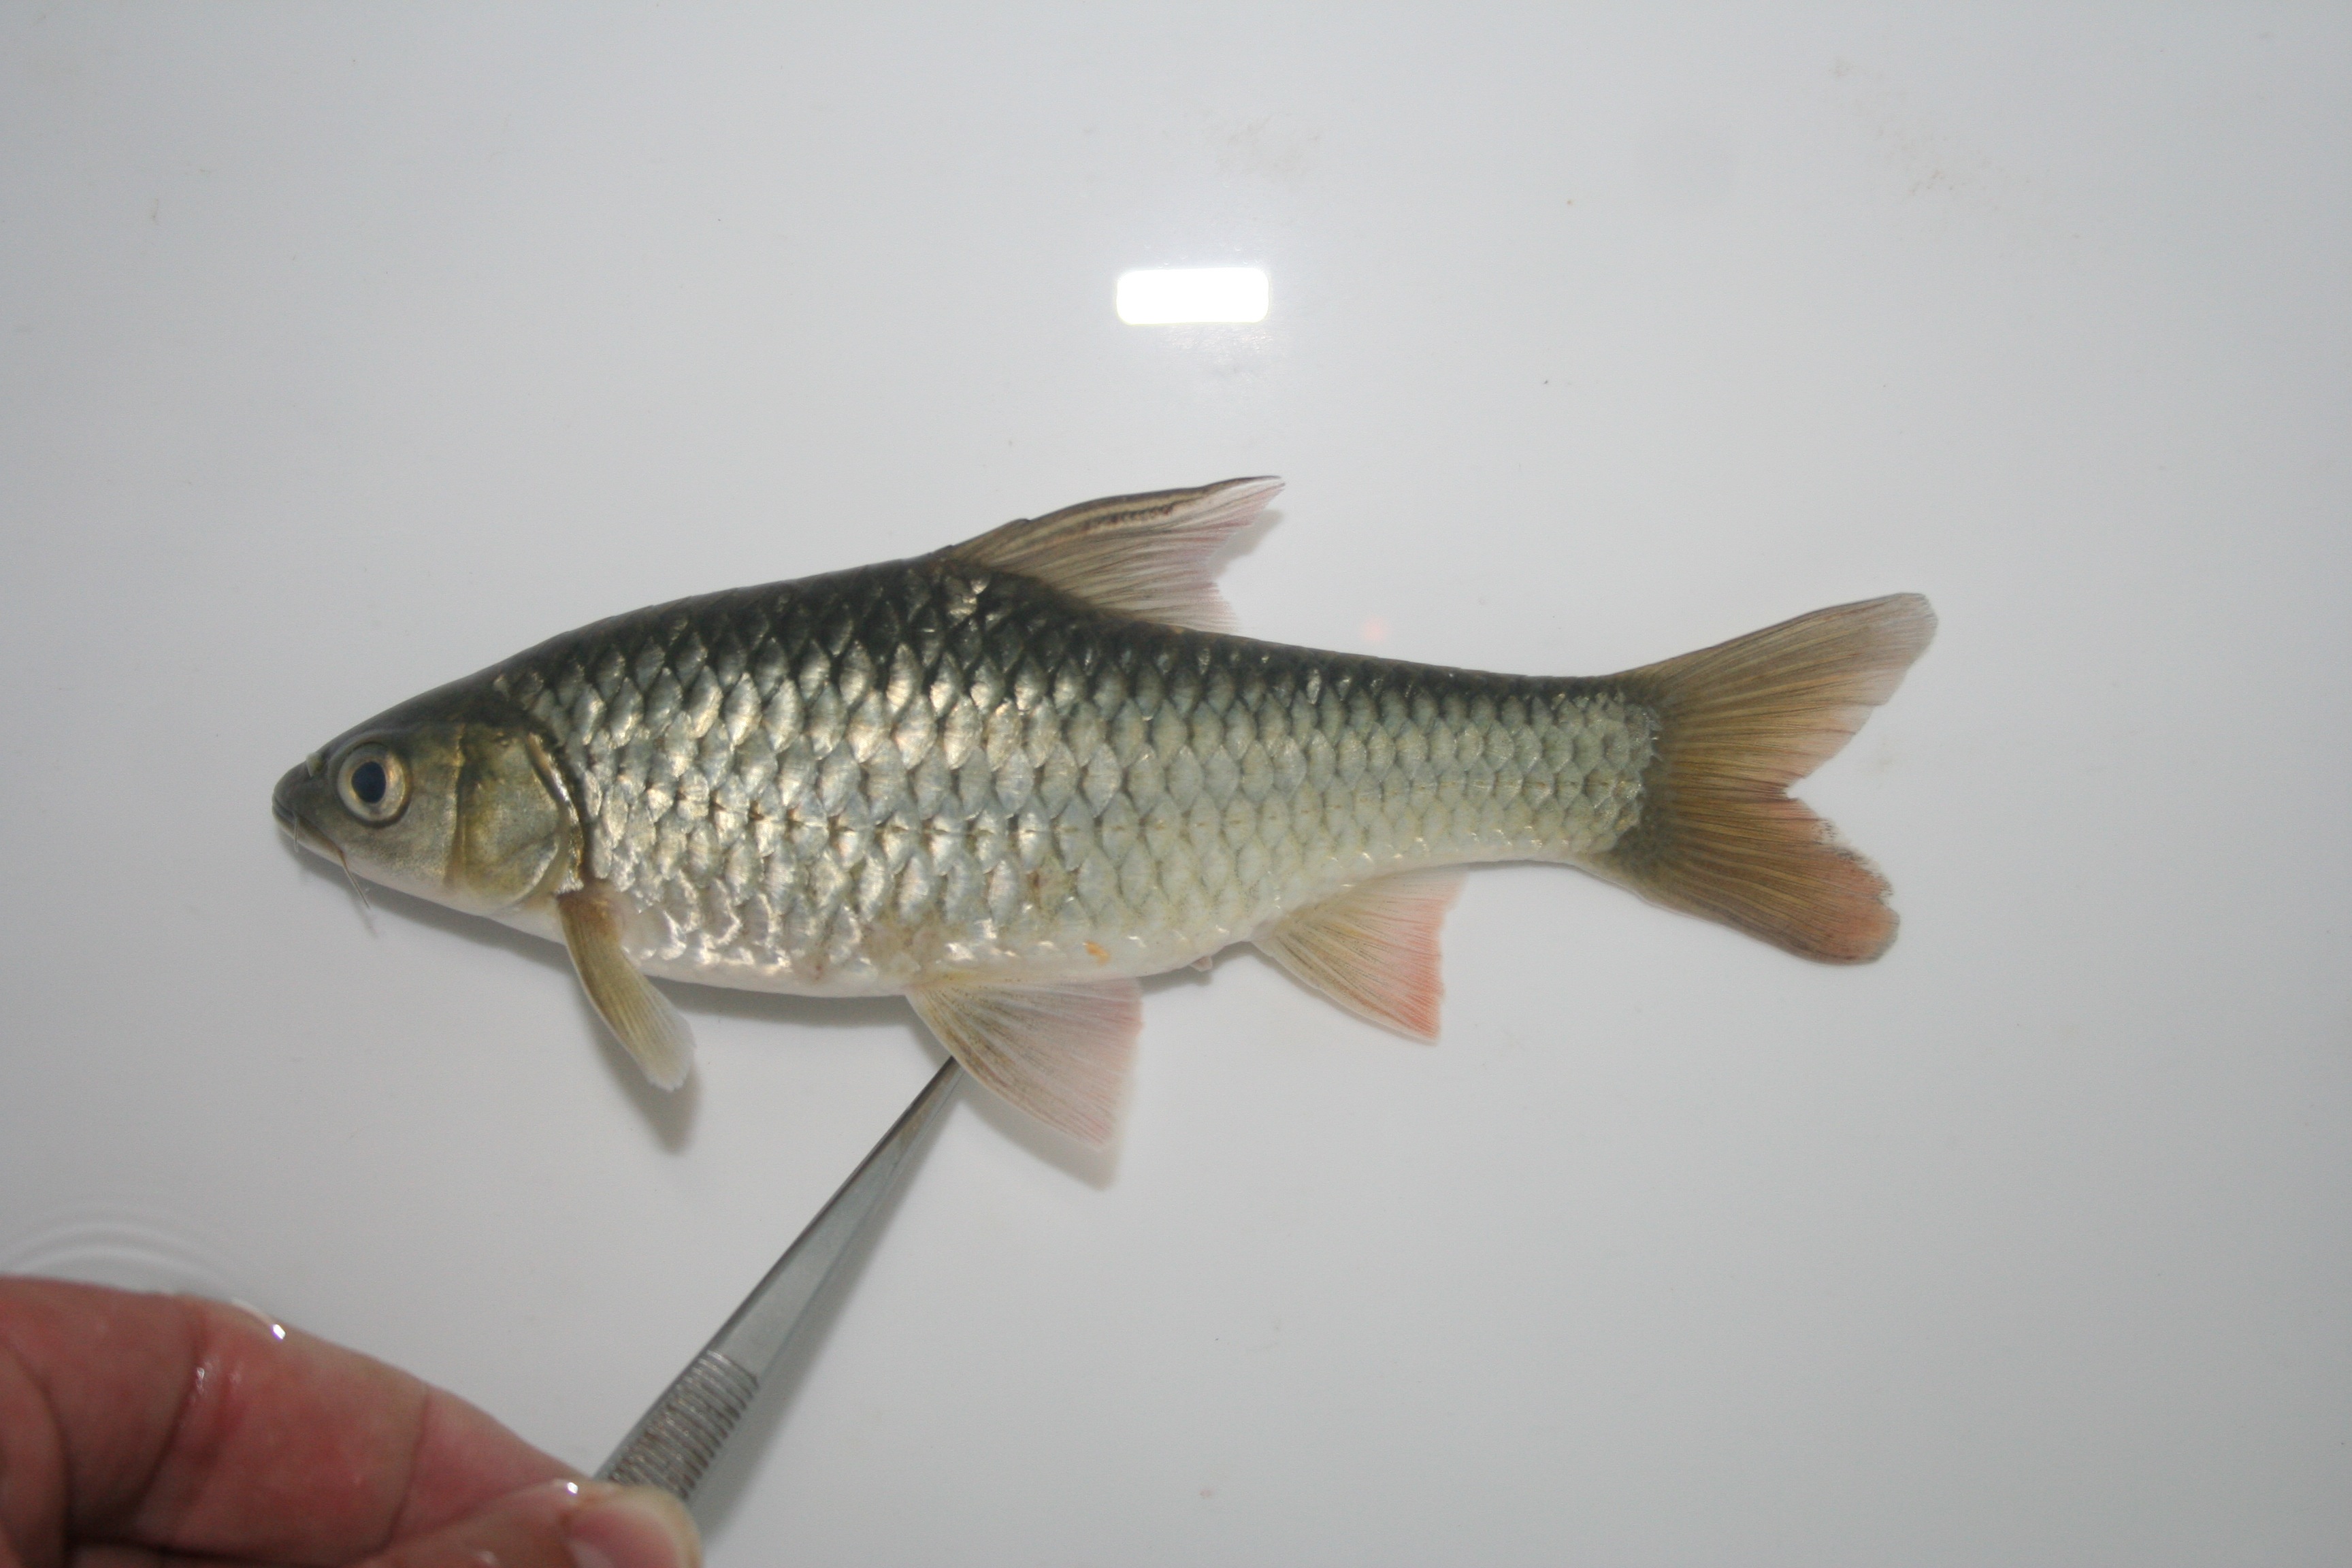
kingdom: Animalia
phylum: Chordata
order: Cypriniformes
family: Cyprinidae
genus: Enteromius
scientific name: Enteromius argenteus
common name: Rosefin barb
